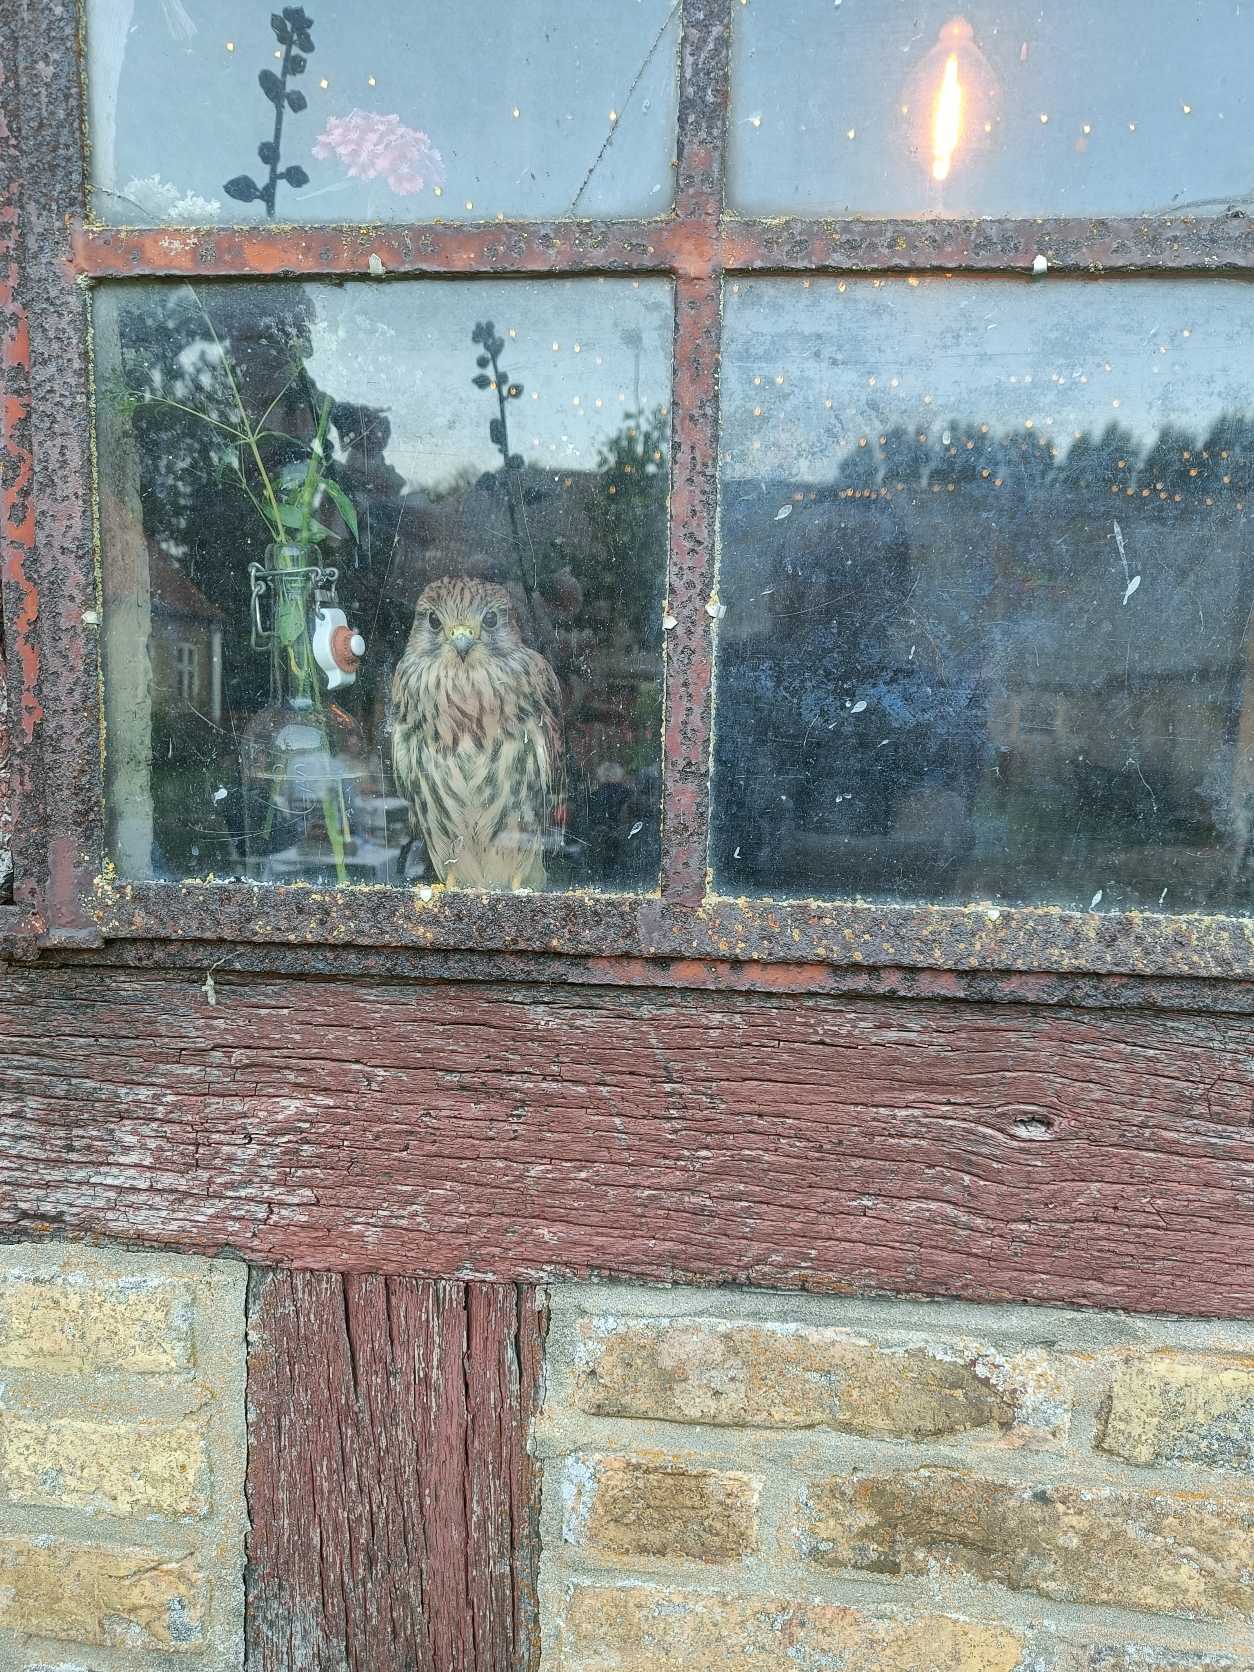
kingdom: Animalia
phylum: Chordata
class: Aves
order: Falconiformes
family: Falconidae
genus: Falco
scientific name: Falco tinnunculus
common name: Tårnfalk
